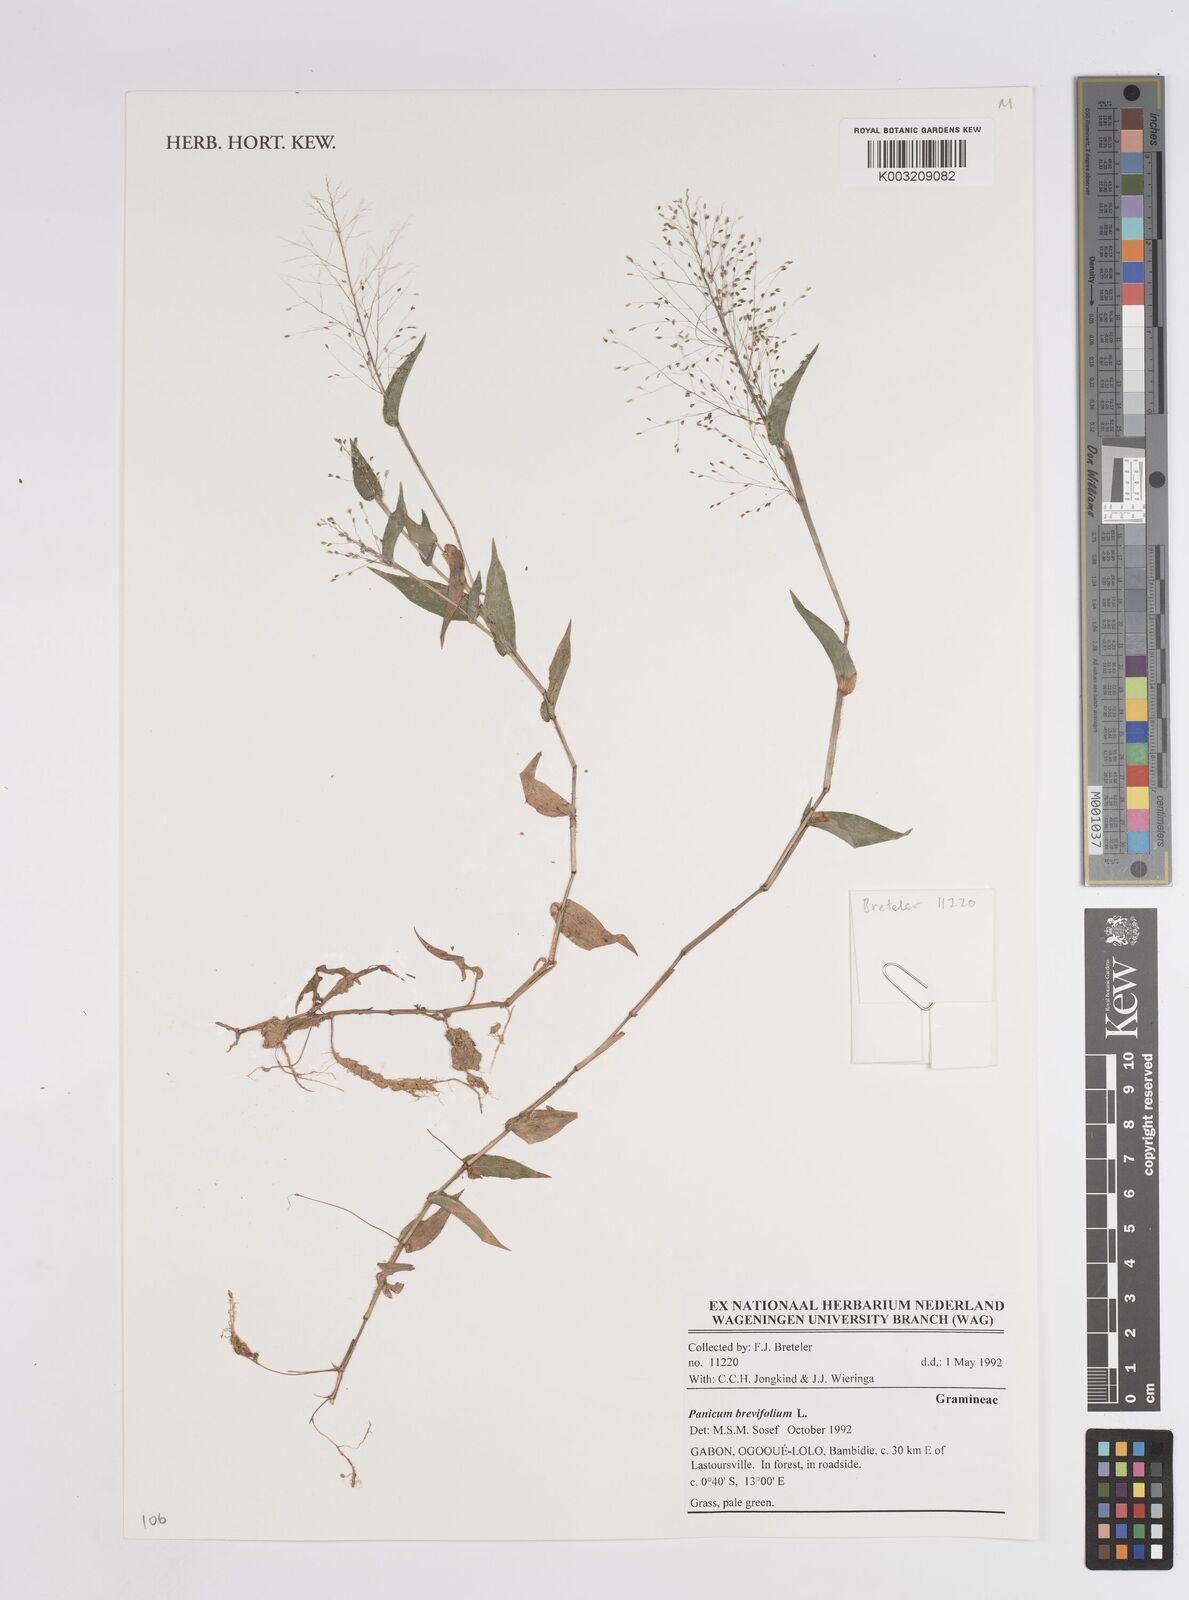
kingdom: Plantae
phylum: Tracheophyta
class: Liliopsida
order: Poales
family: Poaceae
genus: Panicum
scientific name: Panicum brevifolium
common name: Shortleaf panic grass
